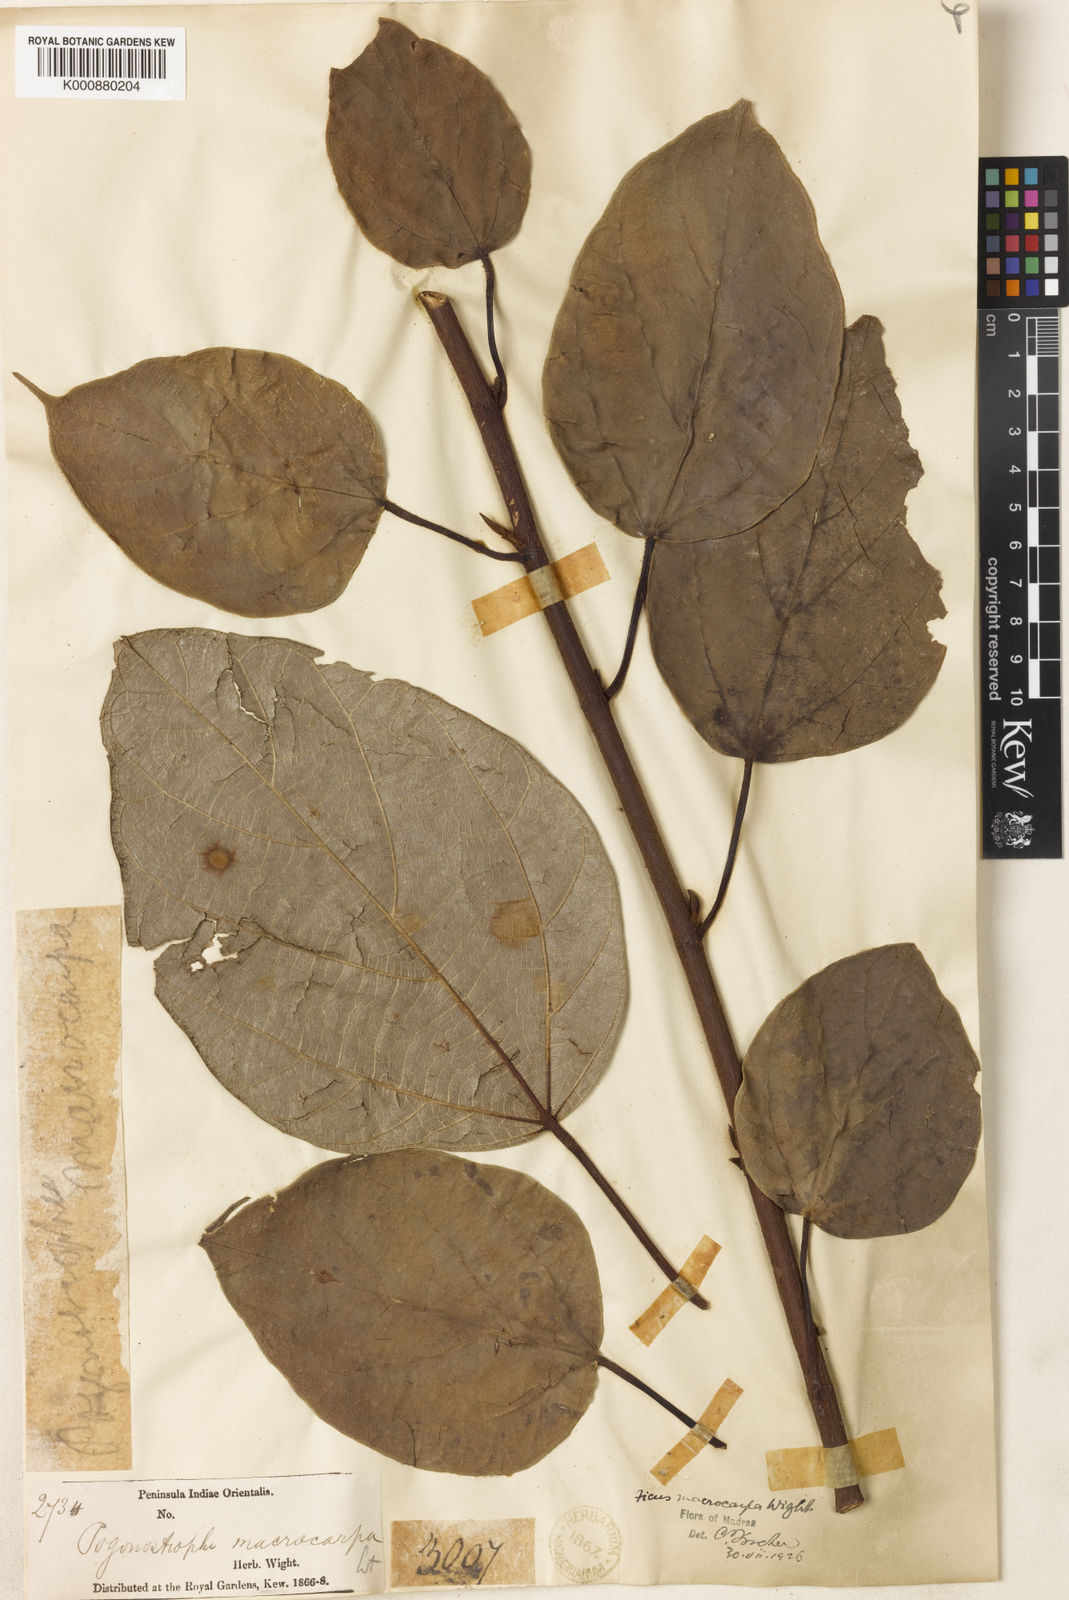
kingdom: Plantae
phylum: Tracheophyta
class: Magnoliopsida
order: Rosales
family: Moraceae
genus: Ficus
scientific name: Ficus laevis
